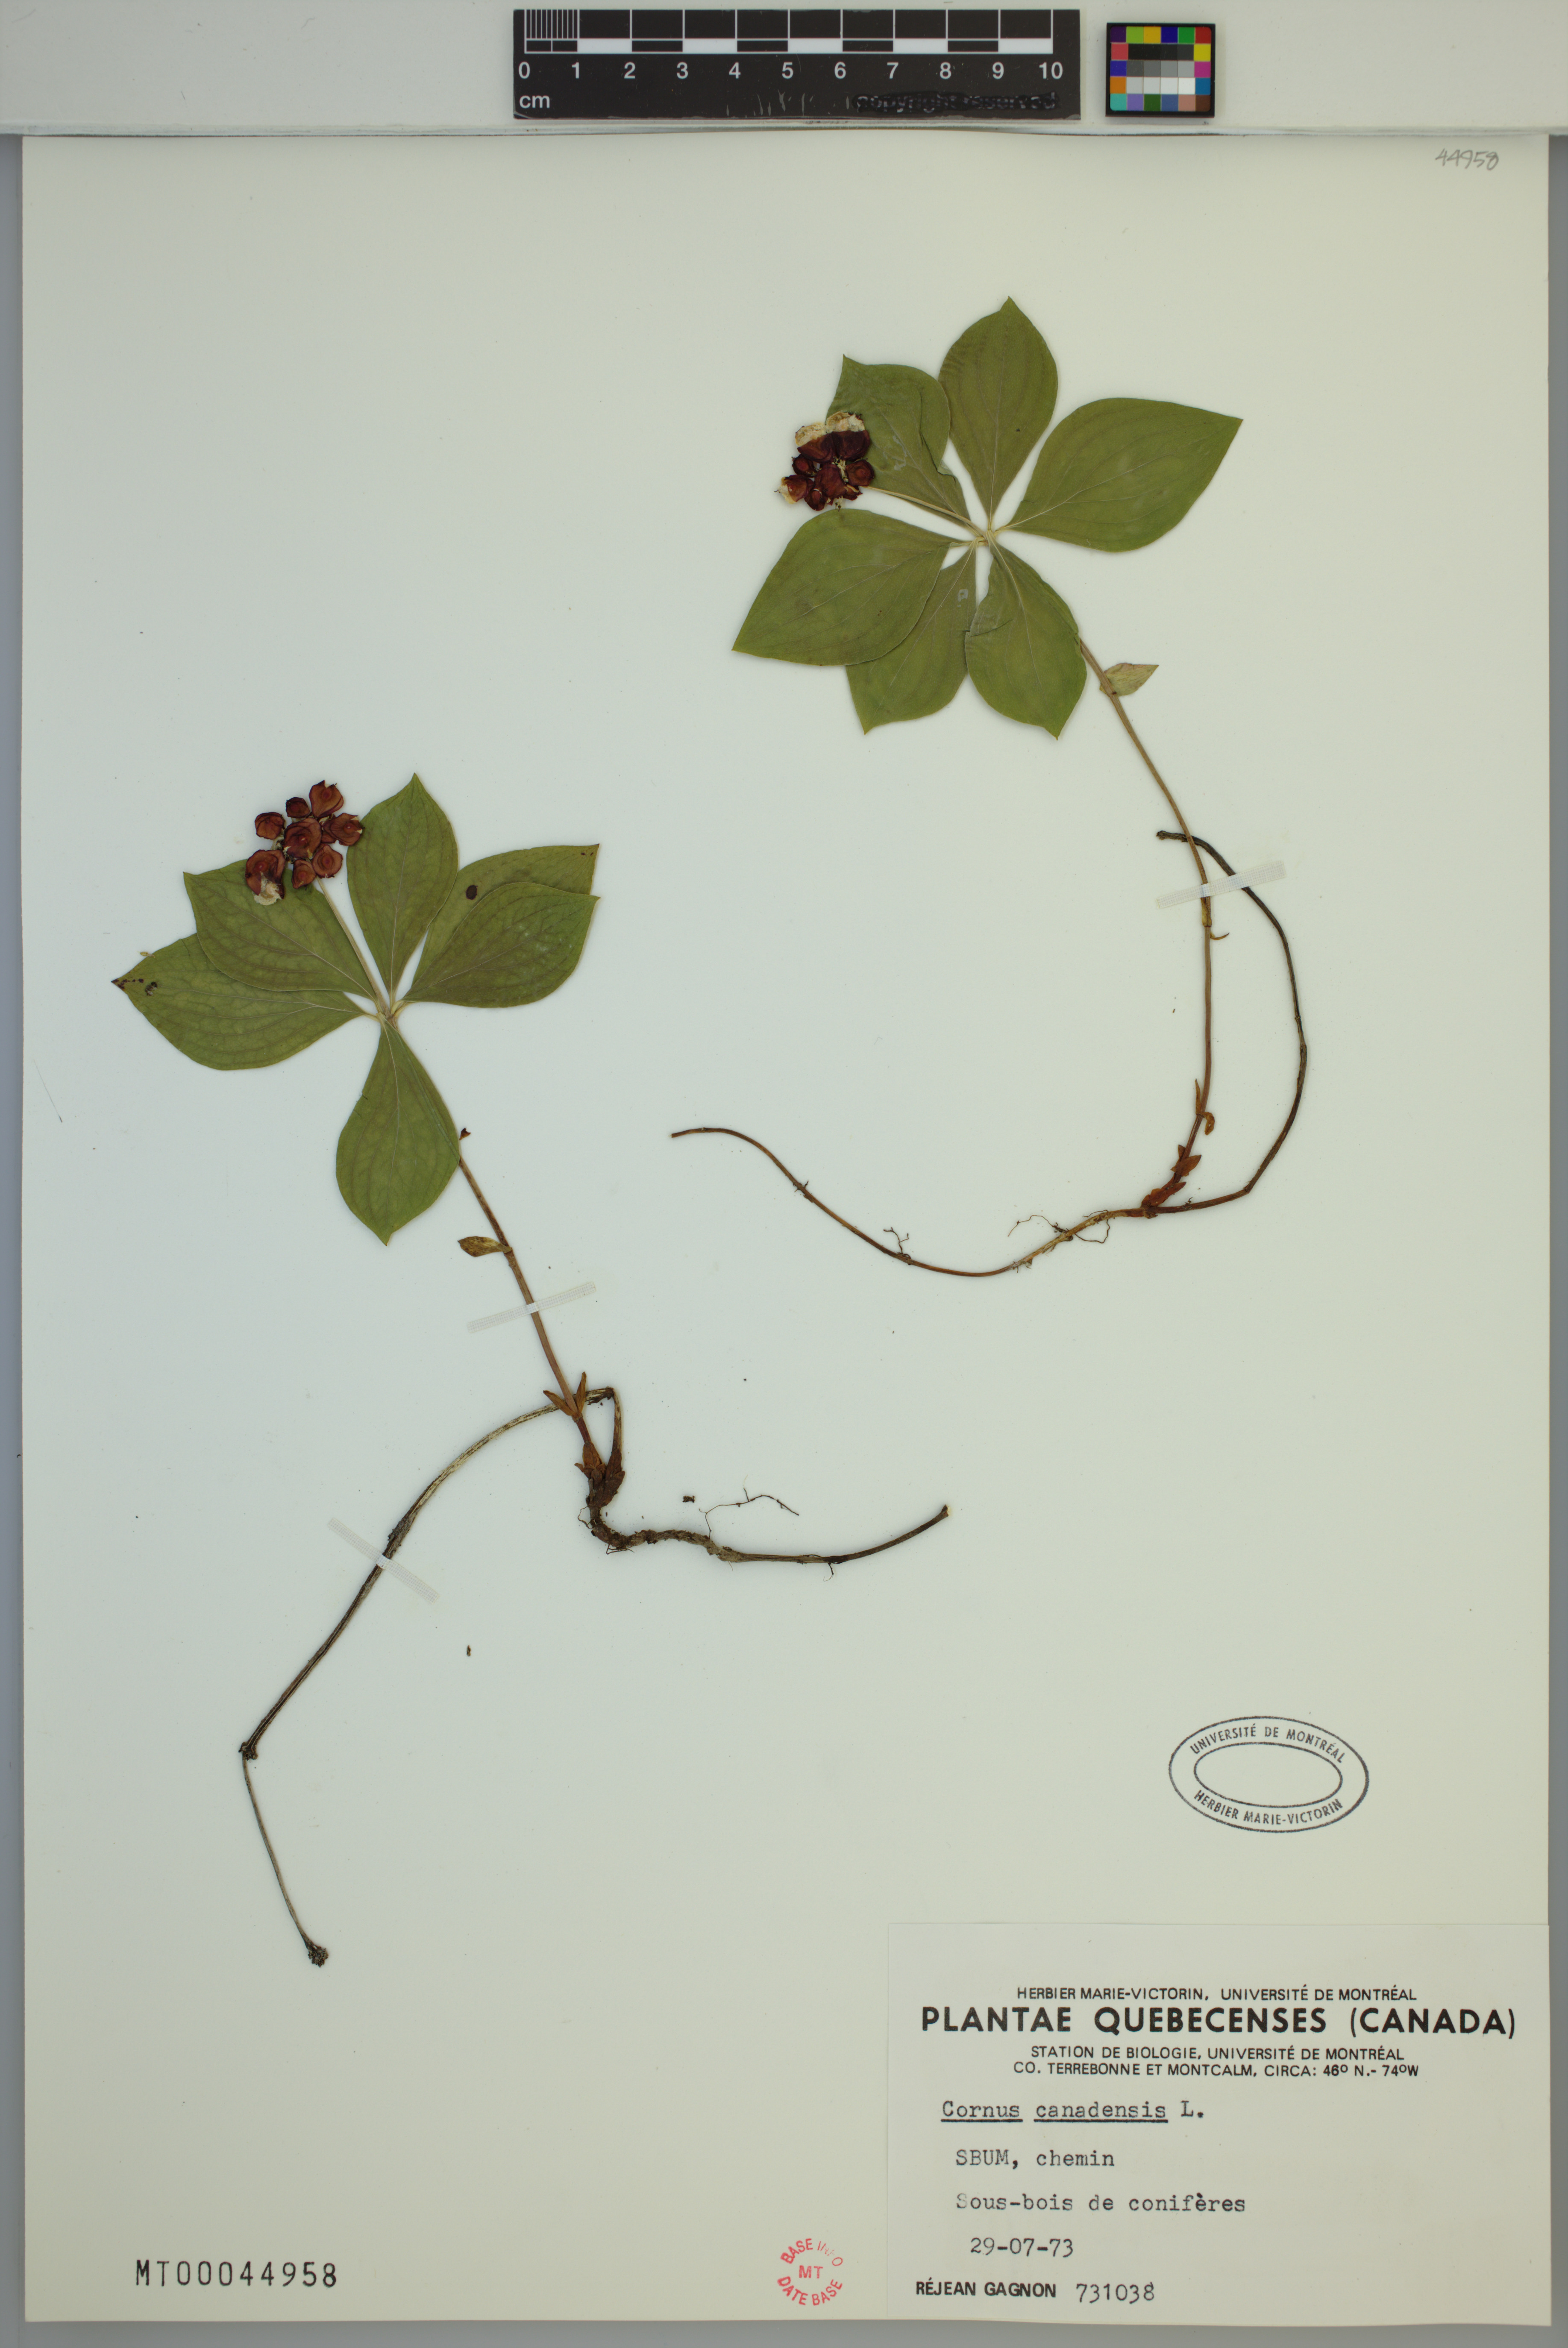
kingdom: Plantae
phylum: Tracheophyta
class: Magnoliopsida
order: Cornales
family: Cornaceae
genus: Cornus
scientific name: Cornus canadensis
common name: Creeping dogwood
